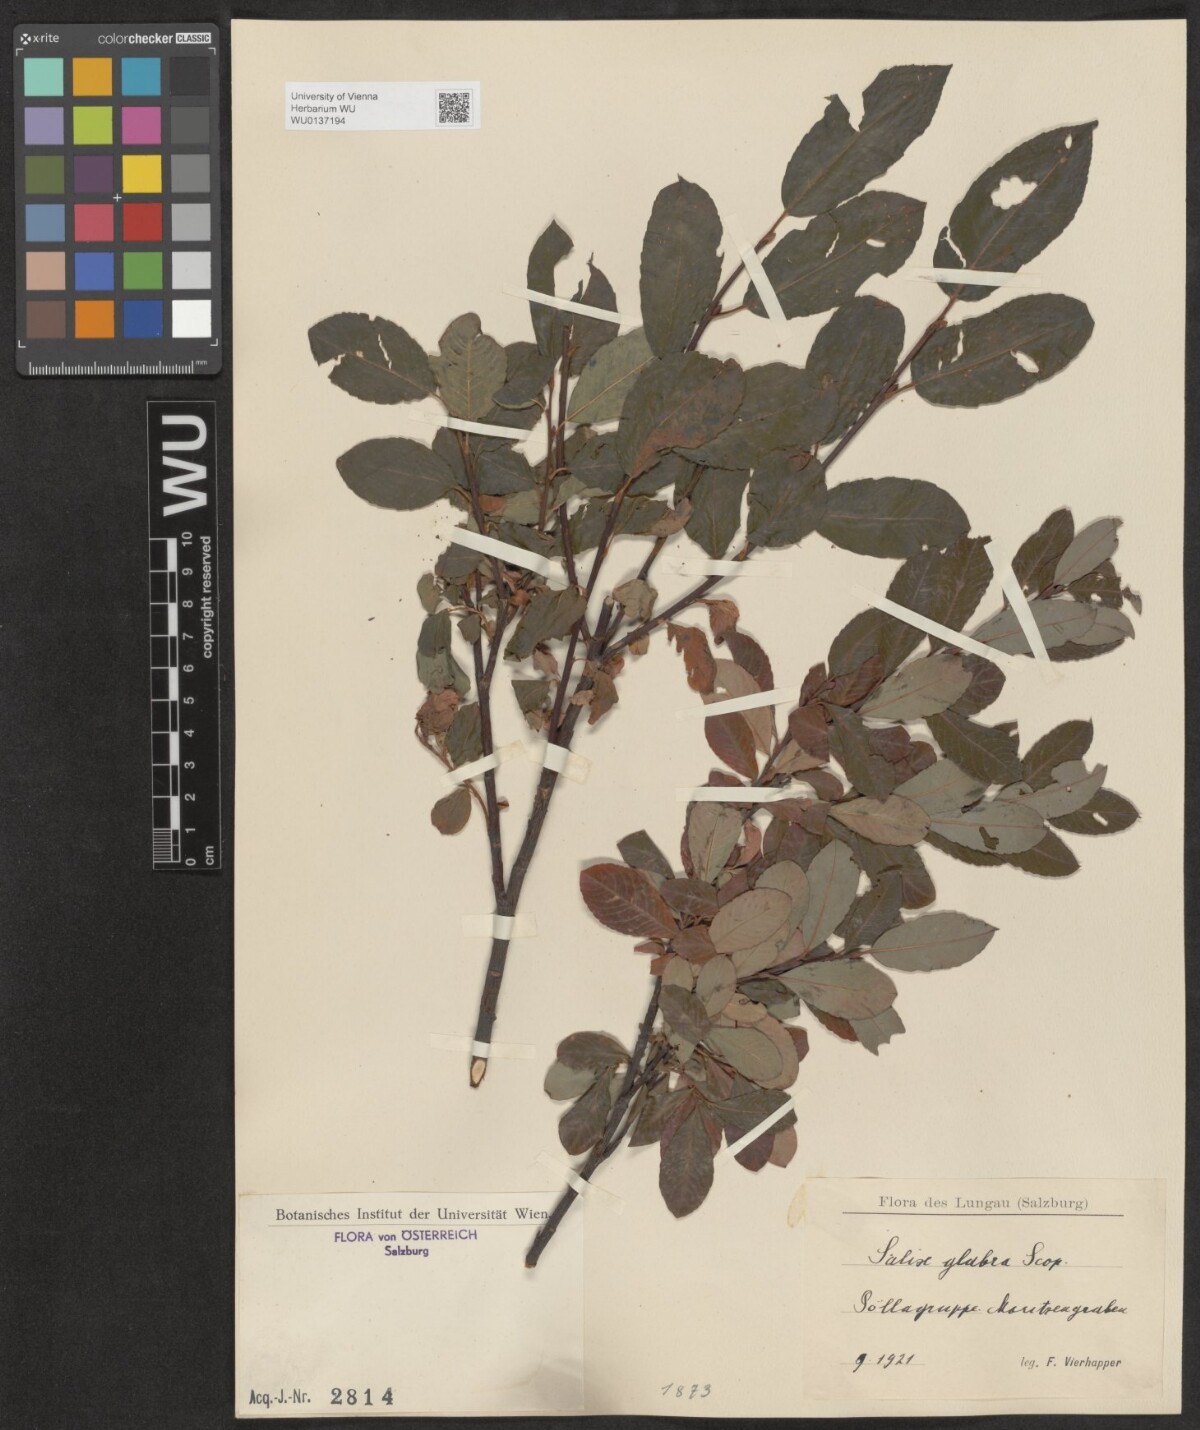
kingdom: Plantae
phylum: Tracheophyta
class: Magnoliopsida
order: Malpighiales
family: Salicaceae
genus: Salix
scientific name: Salix glabra
